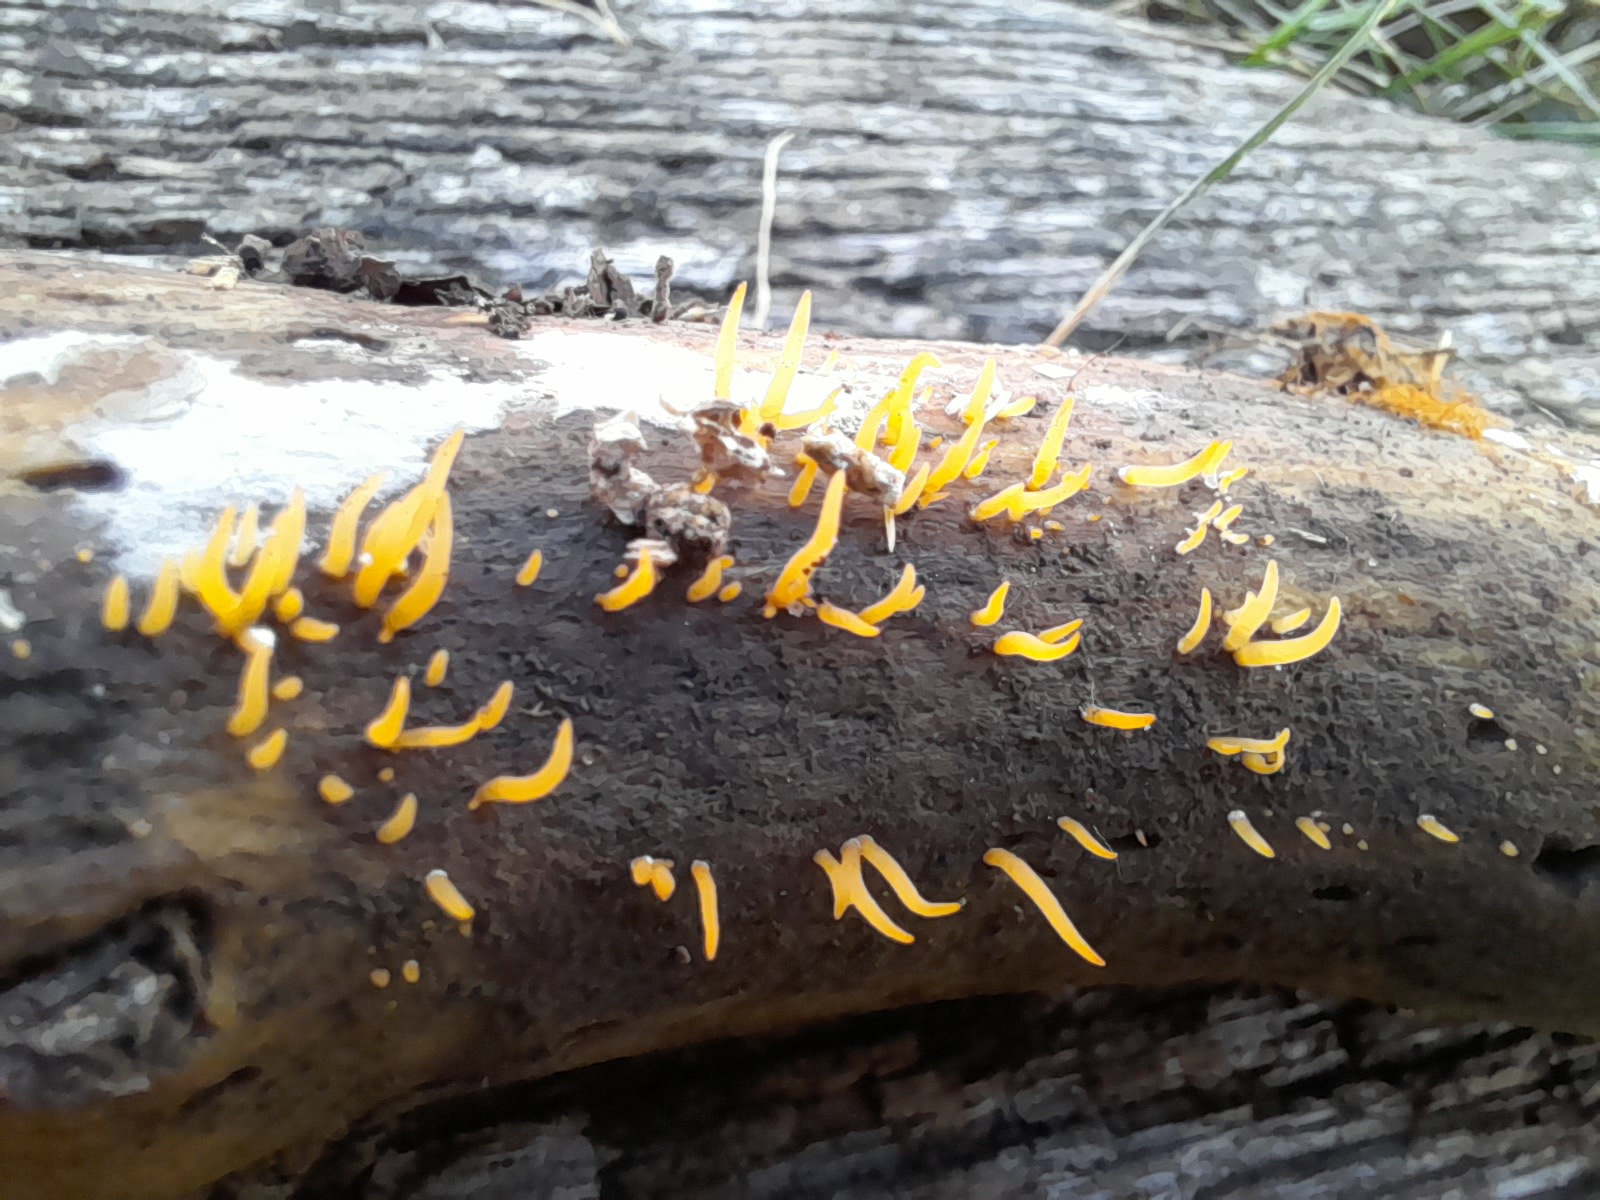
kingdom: Fungi
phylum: Basidiomycota
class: Dacrymycetes
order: Dacrymycetales
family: Dacrymycetaceae
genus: Calocera
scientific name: Calocera cornea
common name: liden guldgaffel
